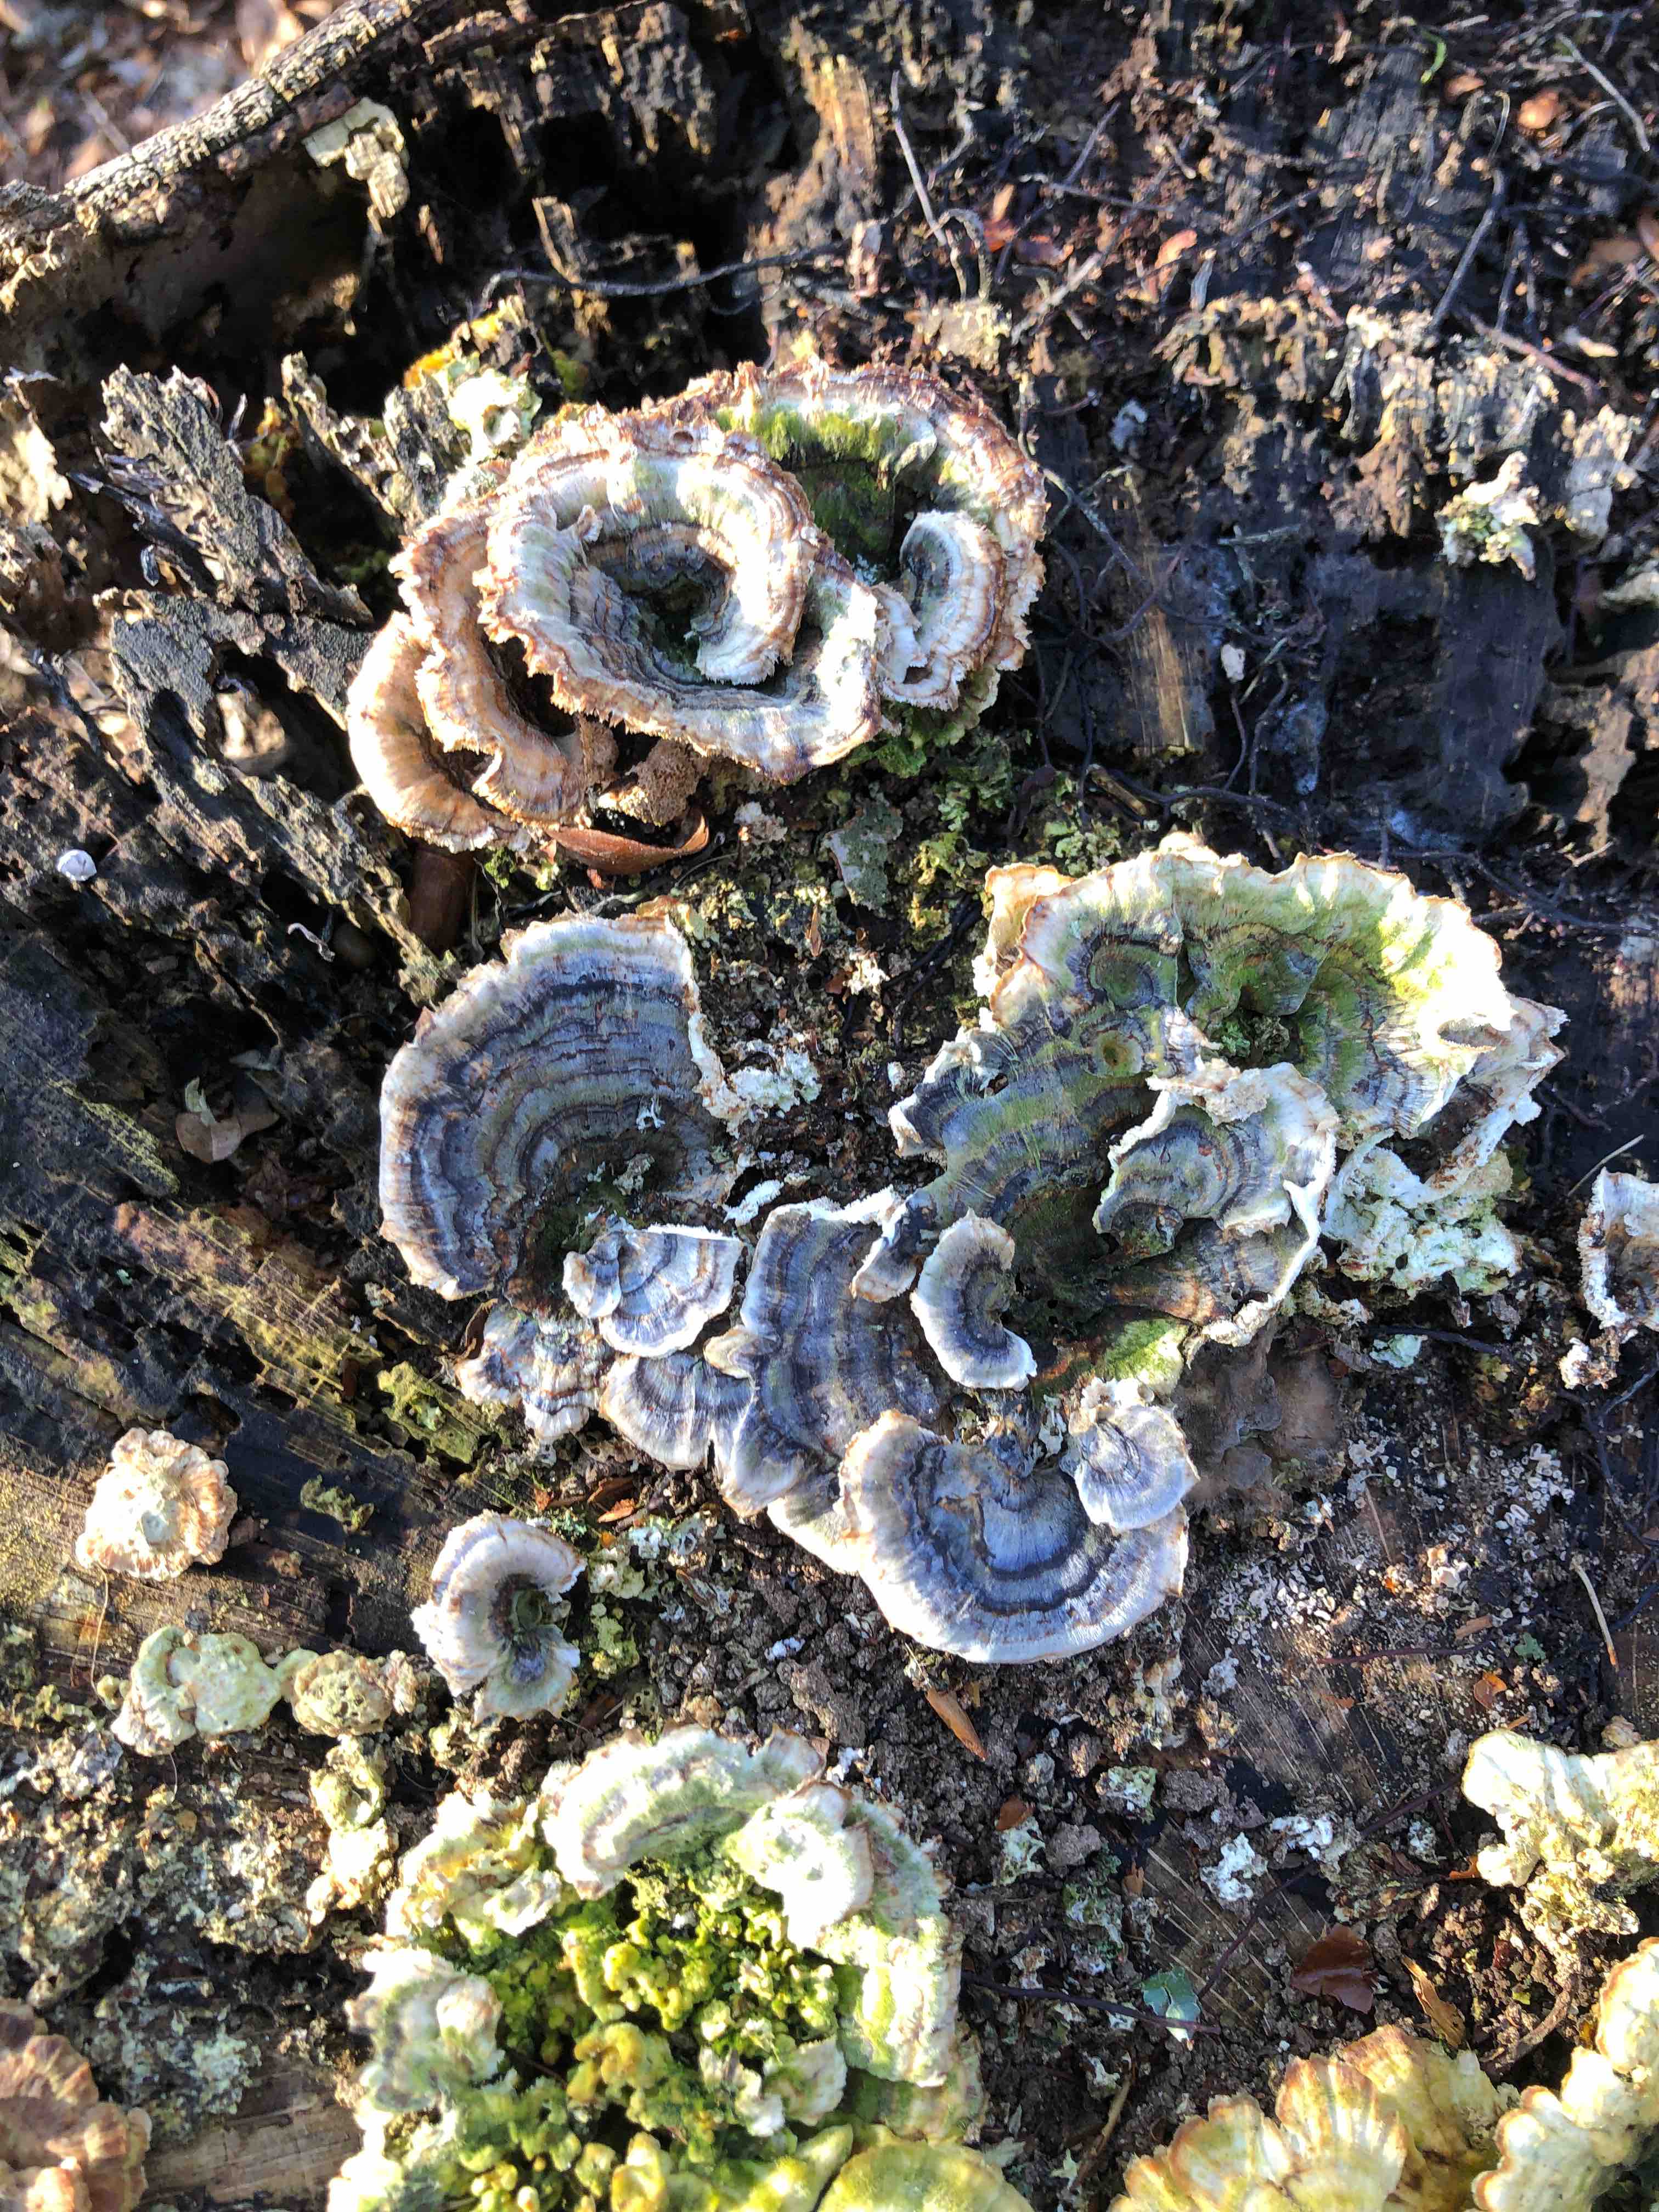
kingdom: Fungi
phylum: Basidiomycota
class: Agaricomycetes
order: Polyporales
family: Polyporaceae
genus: Trametes
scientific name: Trametes versicolor
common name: broget læderporesvamp
